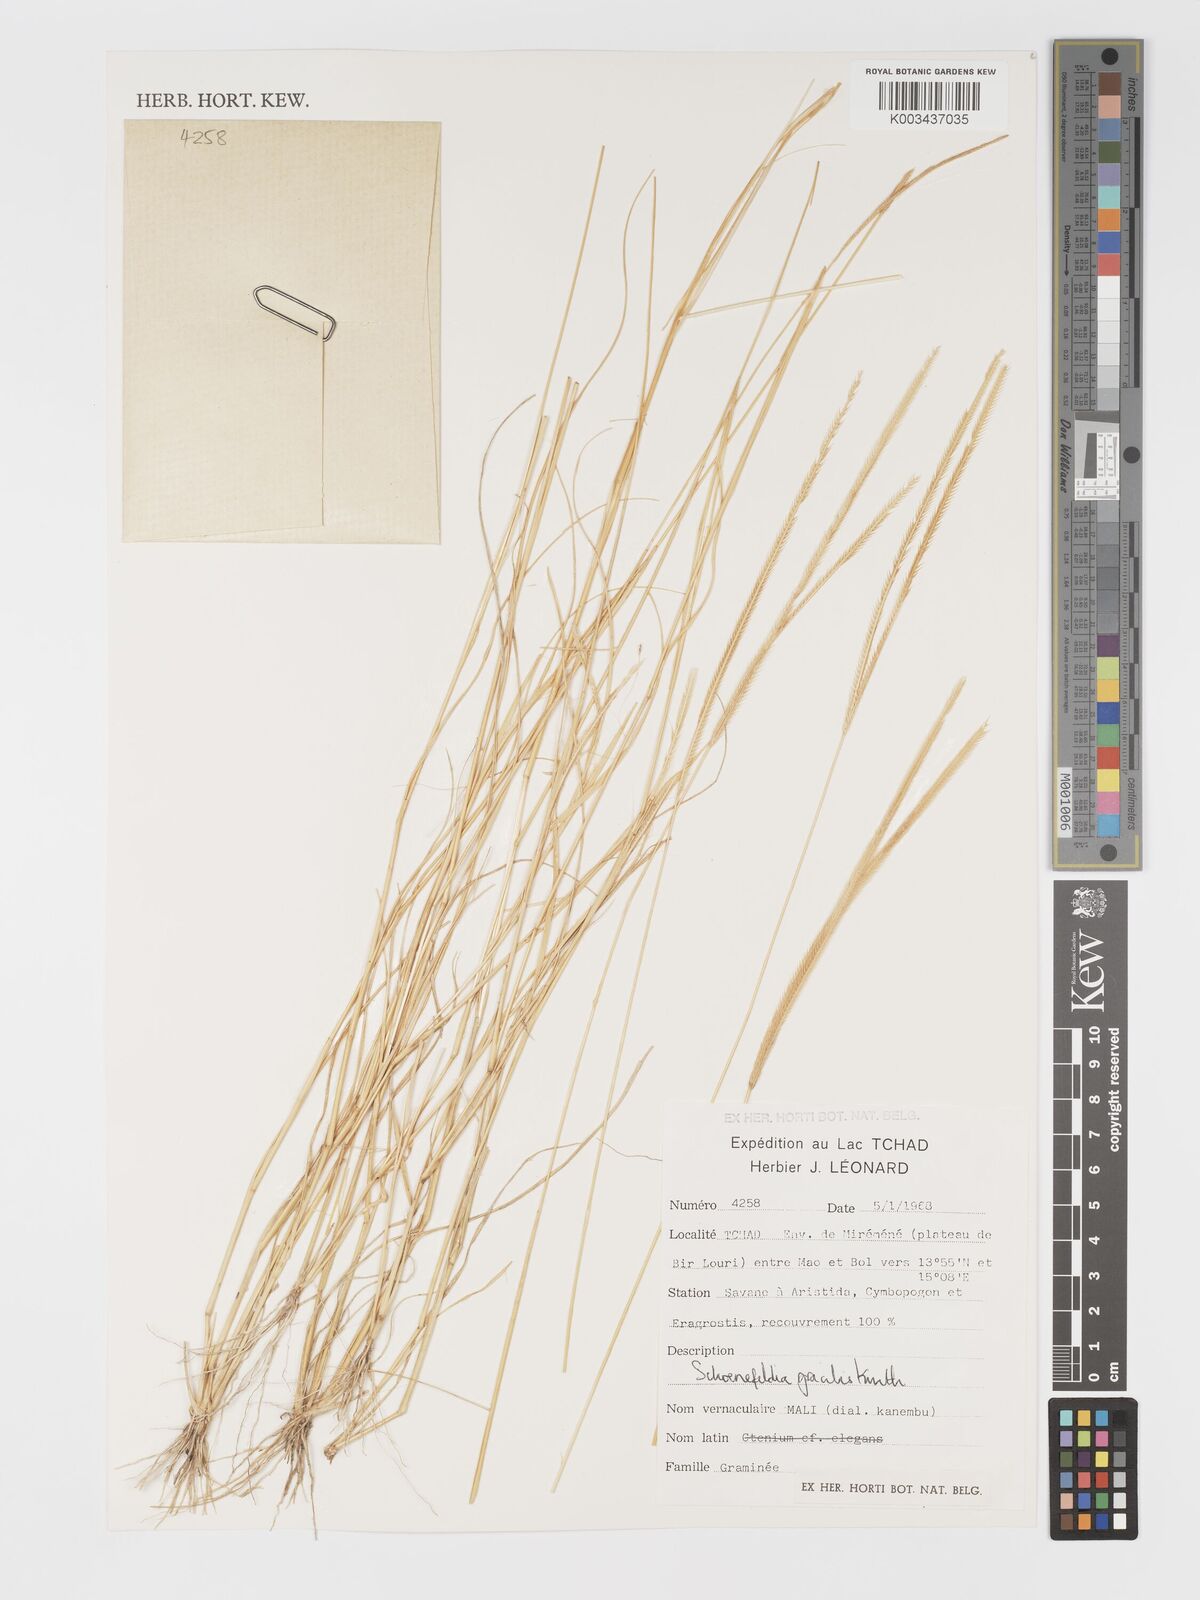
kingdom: Plantae
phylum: Tracheophyta
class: Liliopsida
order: Poales
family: Poaceae
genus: Schoenefeldia
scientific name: Schoenefeldia gracilis
